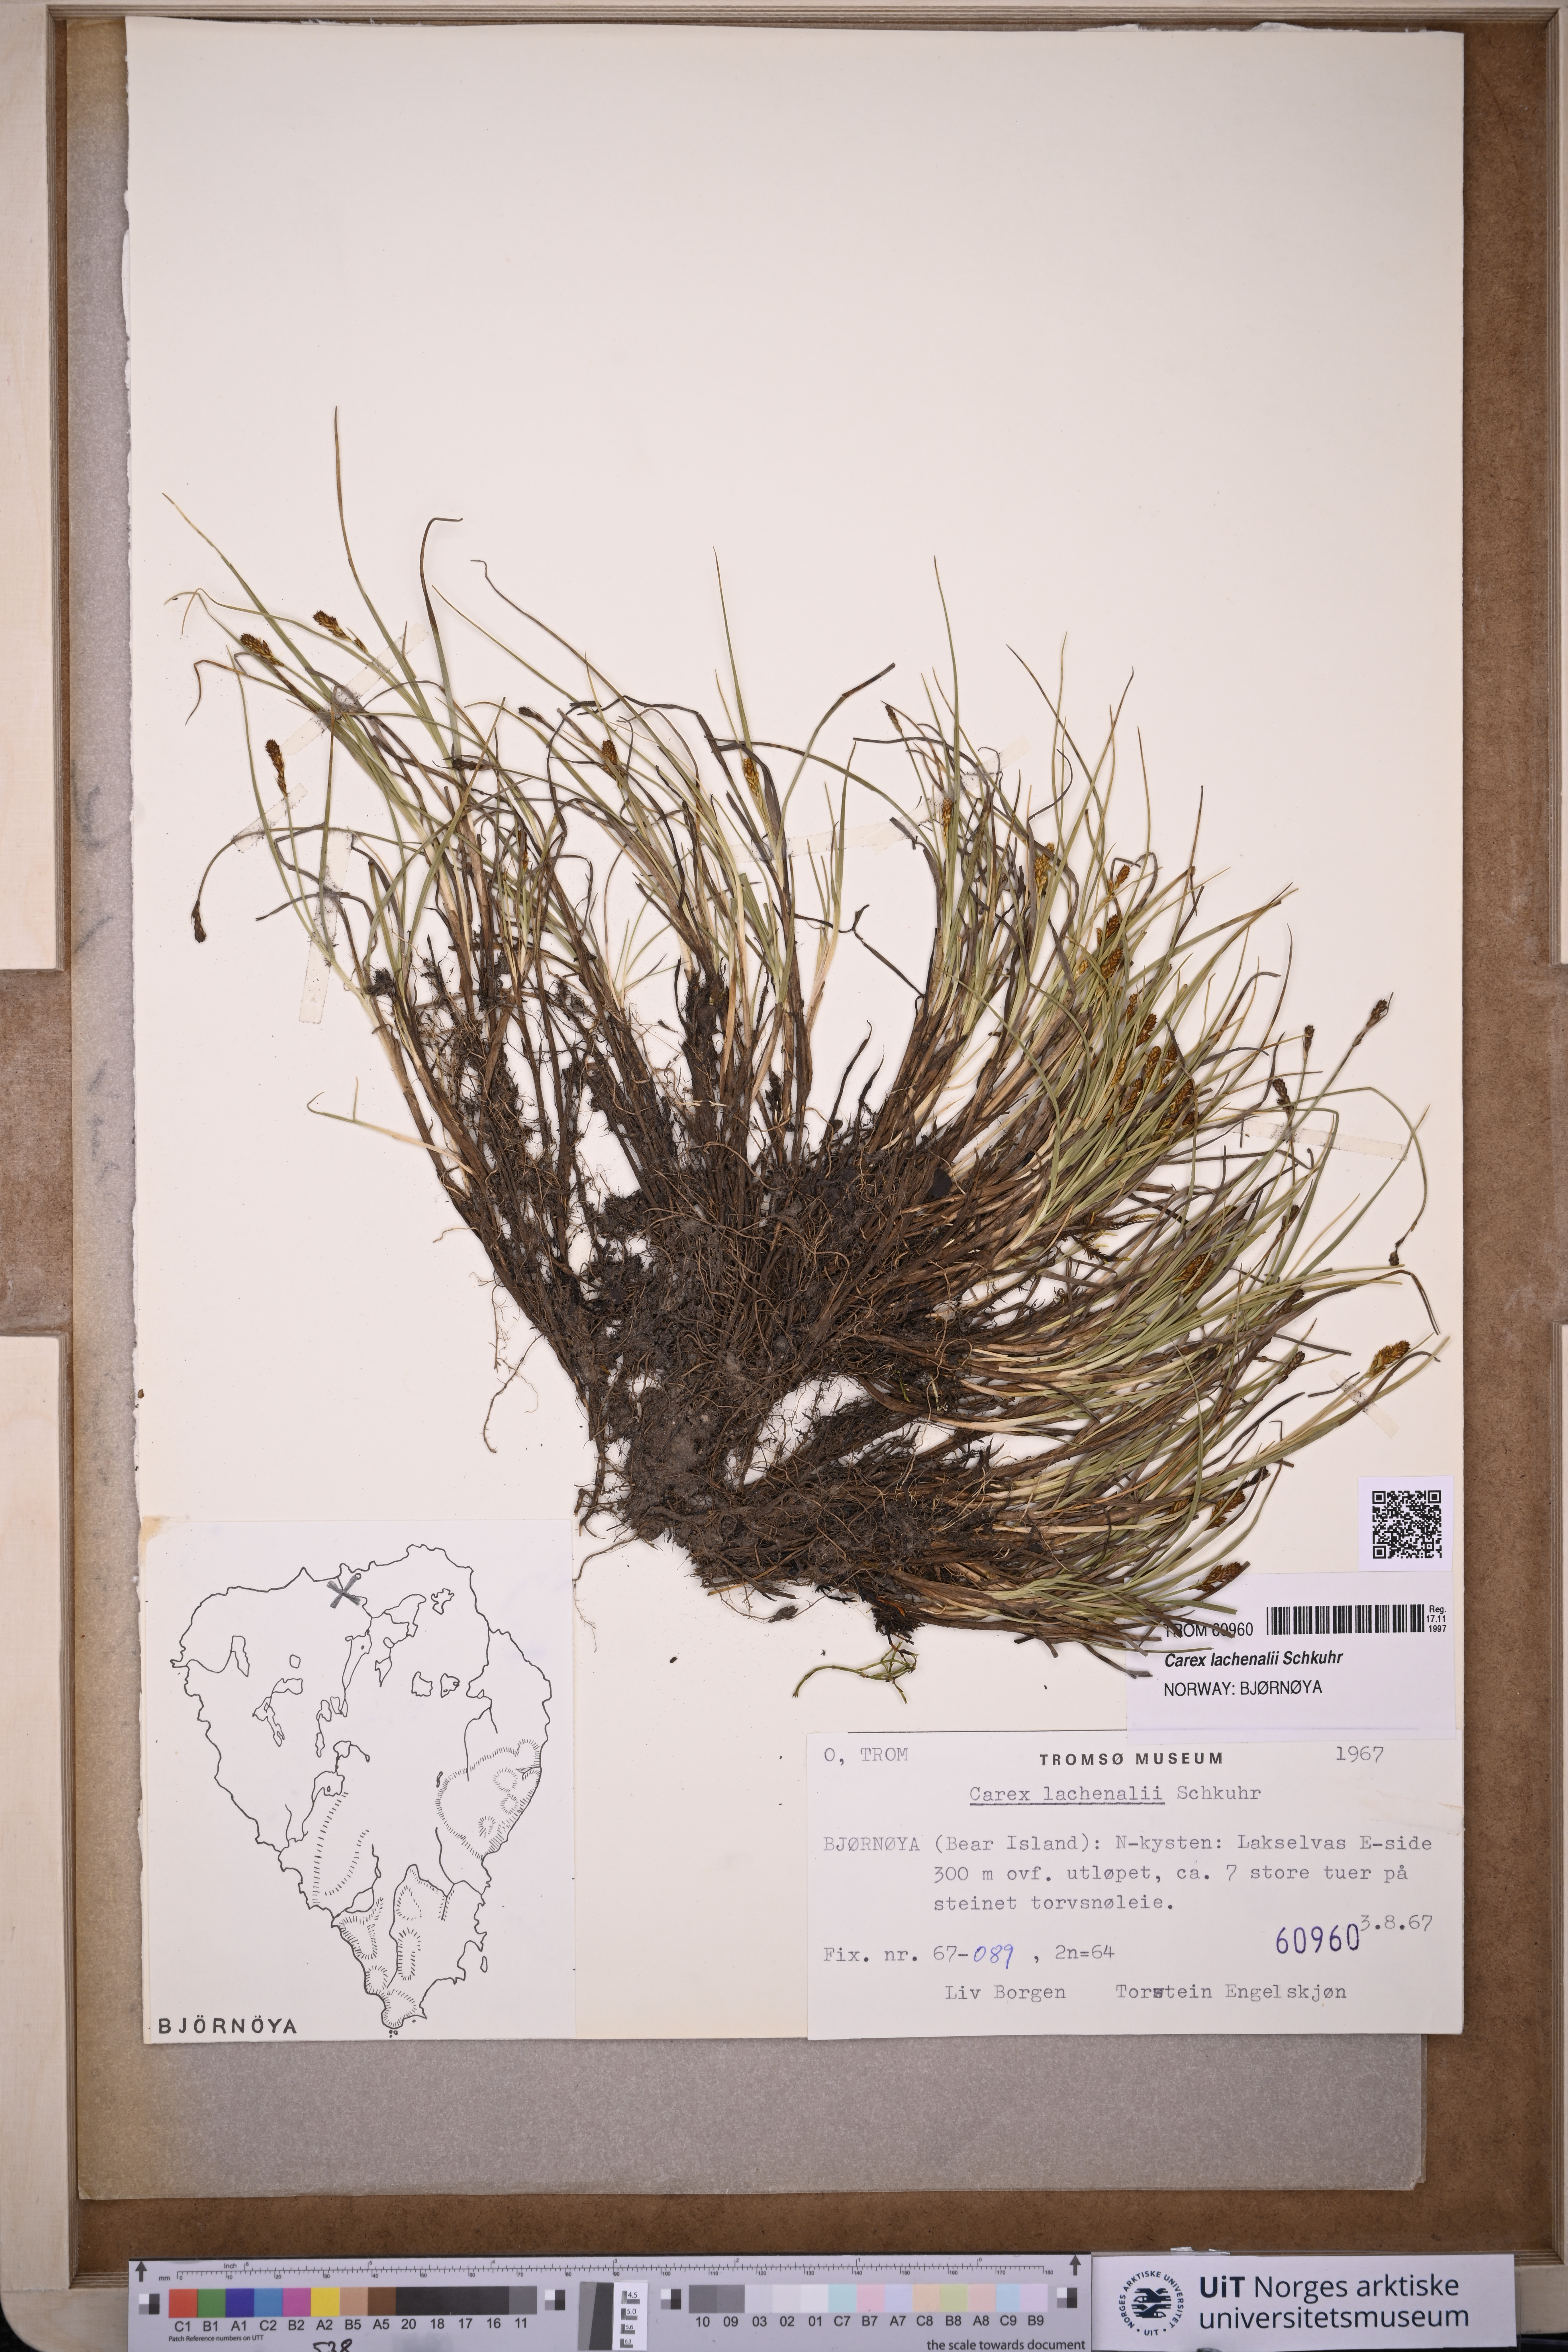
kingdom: Plantae
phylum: Tracheophyta
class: Liliopsida
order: Poales
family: Cyperaceae
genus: Carex
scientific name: Carex lachenalii
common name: Hare's-foot sedge
